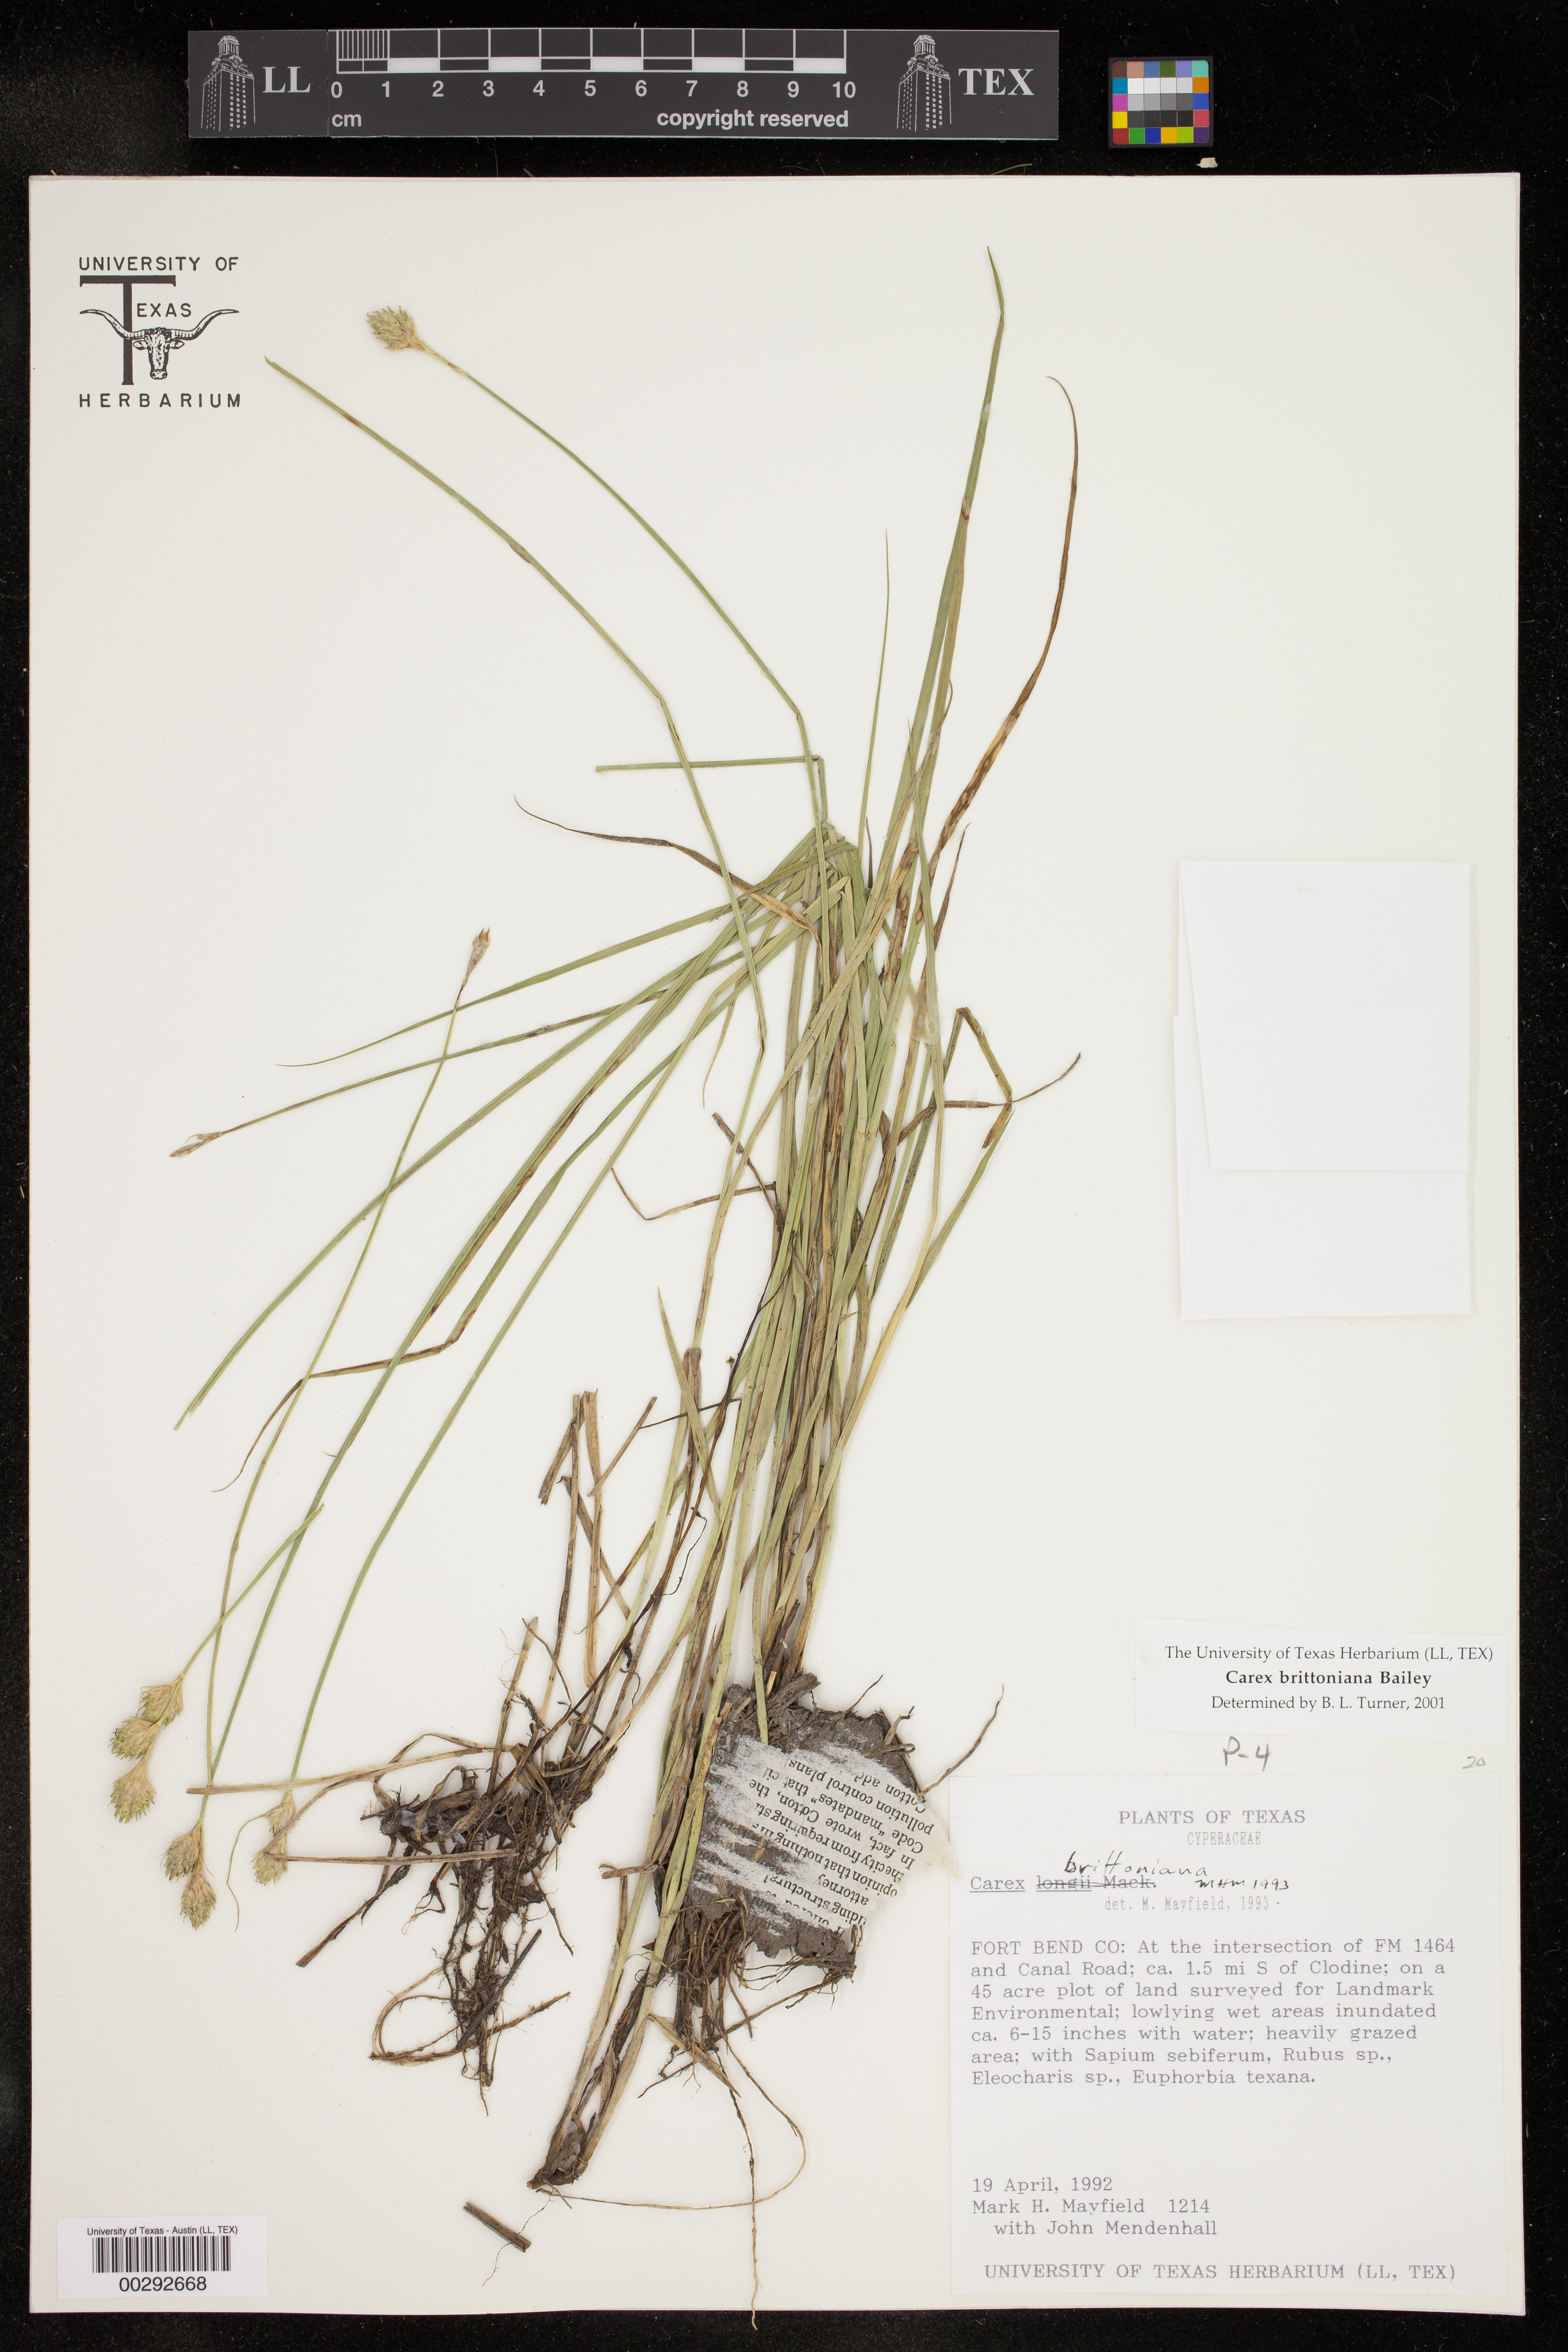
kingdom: Plantae
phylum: Tracheophyta
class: Liliopsida
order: Poales
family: Cyperaceae
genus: Carex
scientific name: Carex tetrastachya
